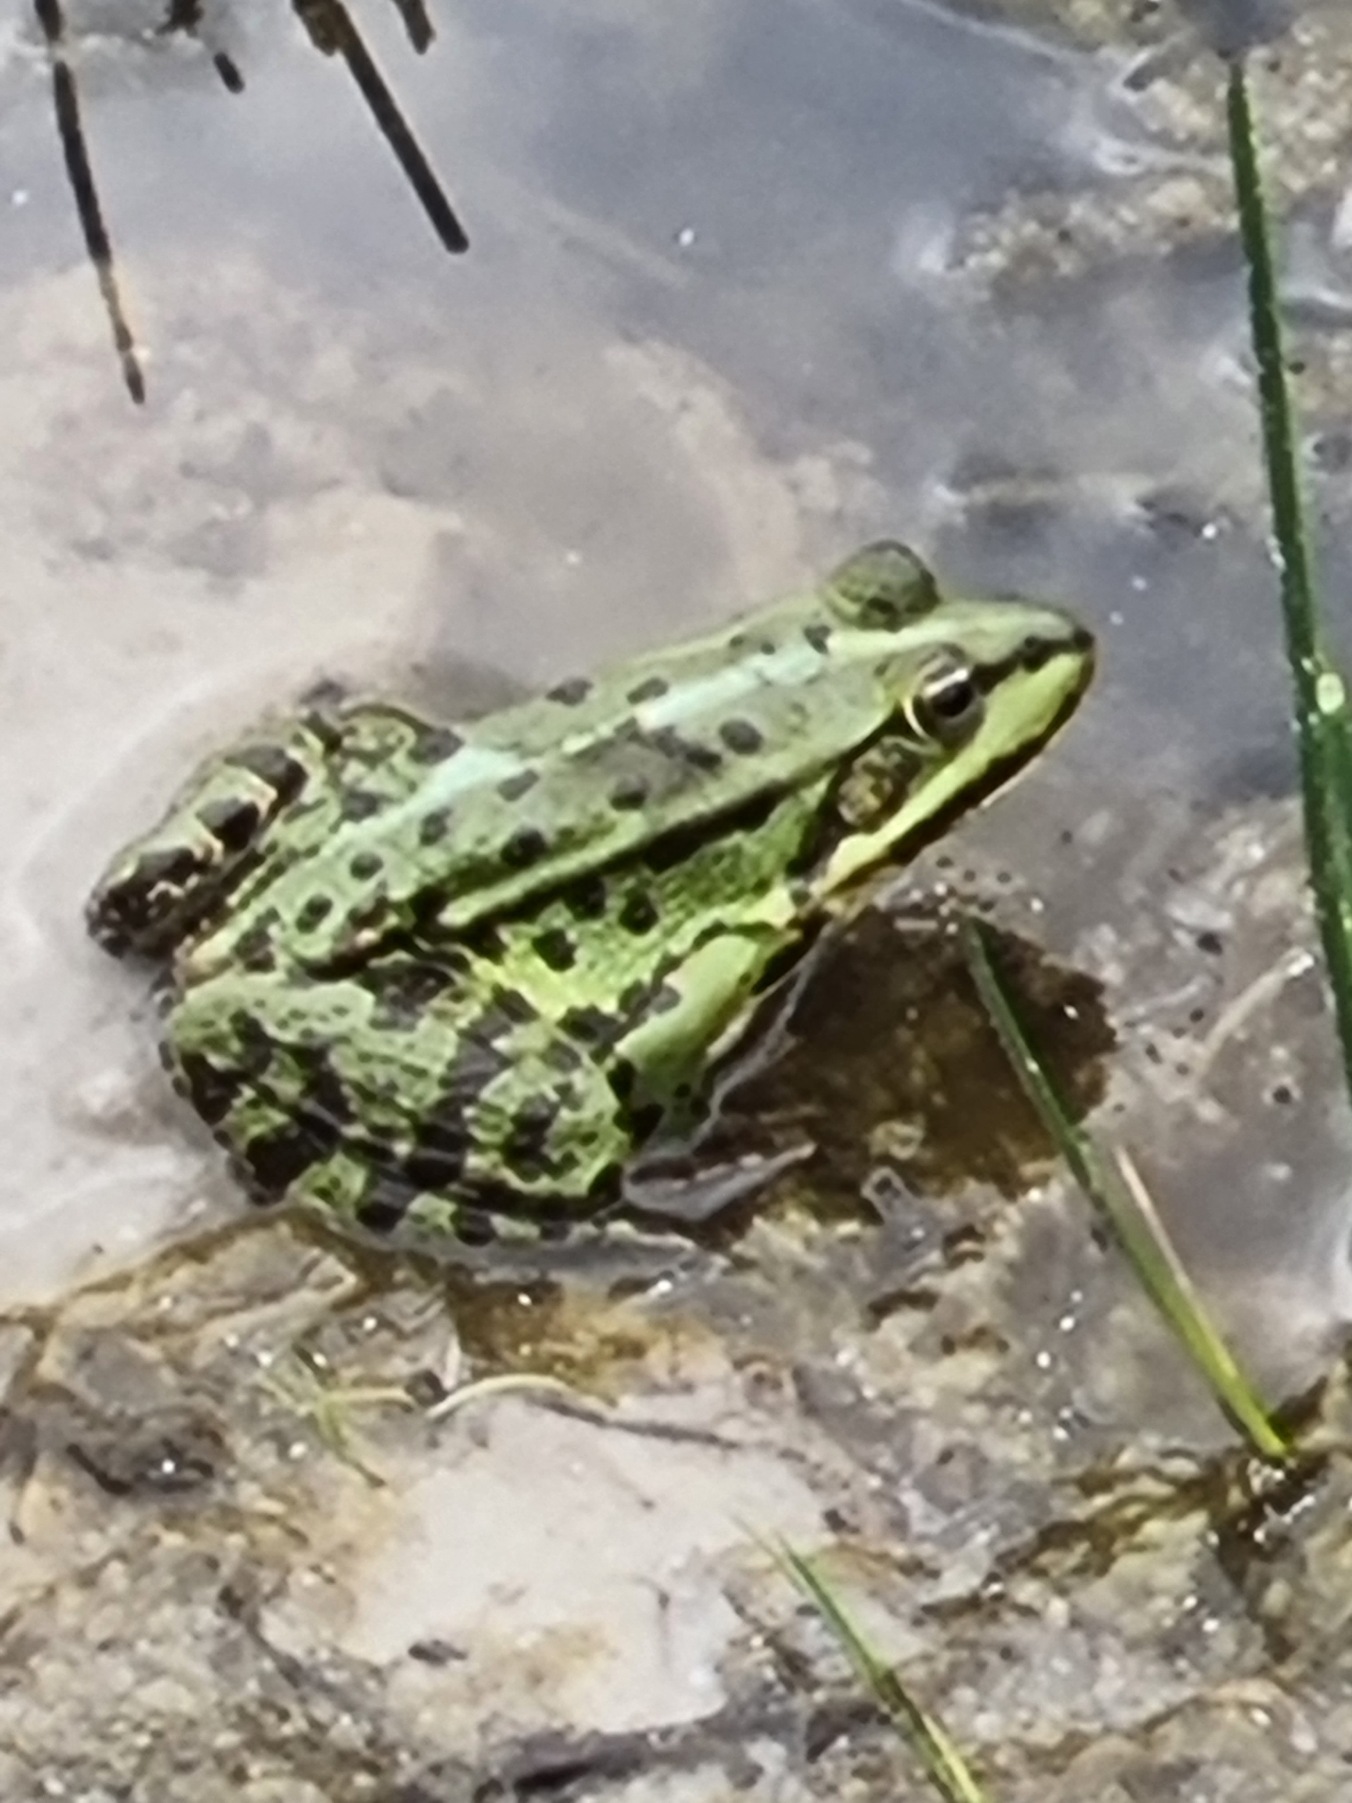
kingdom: Animalia
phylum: Chordata
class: Amphibia
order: Anura
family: Ranidae
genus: Pelophylax
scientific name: Pelophylax lessonae
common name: Grøn frø
